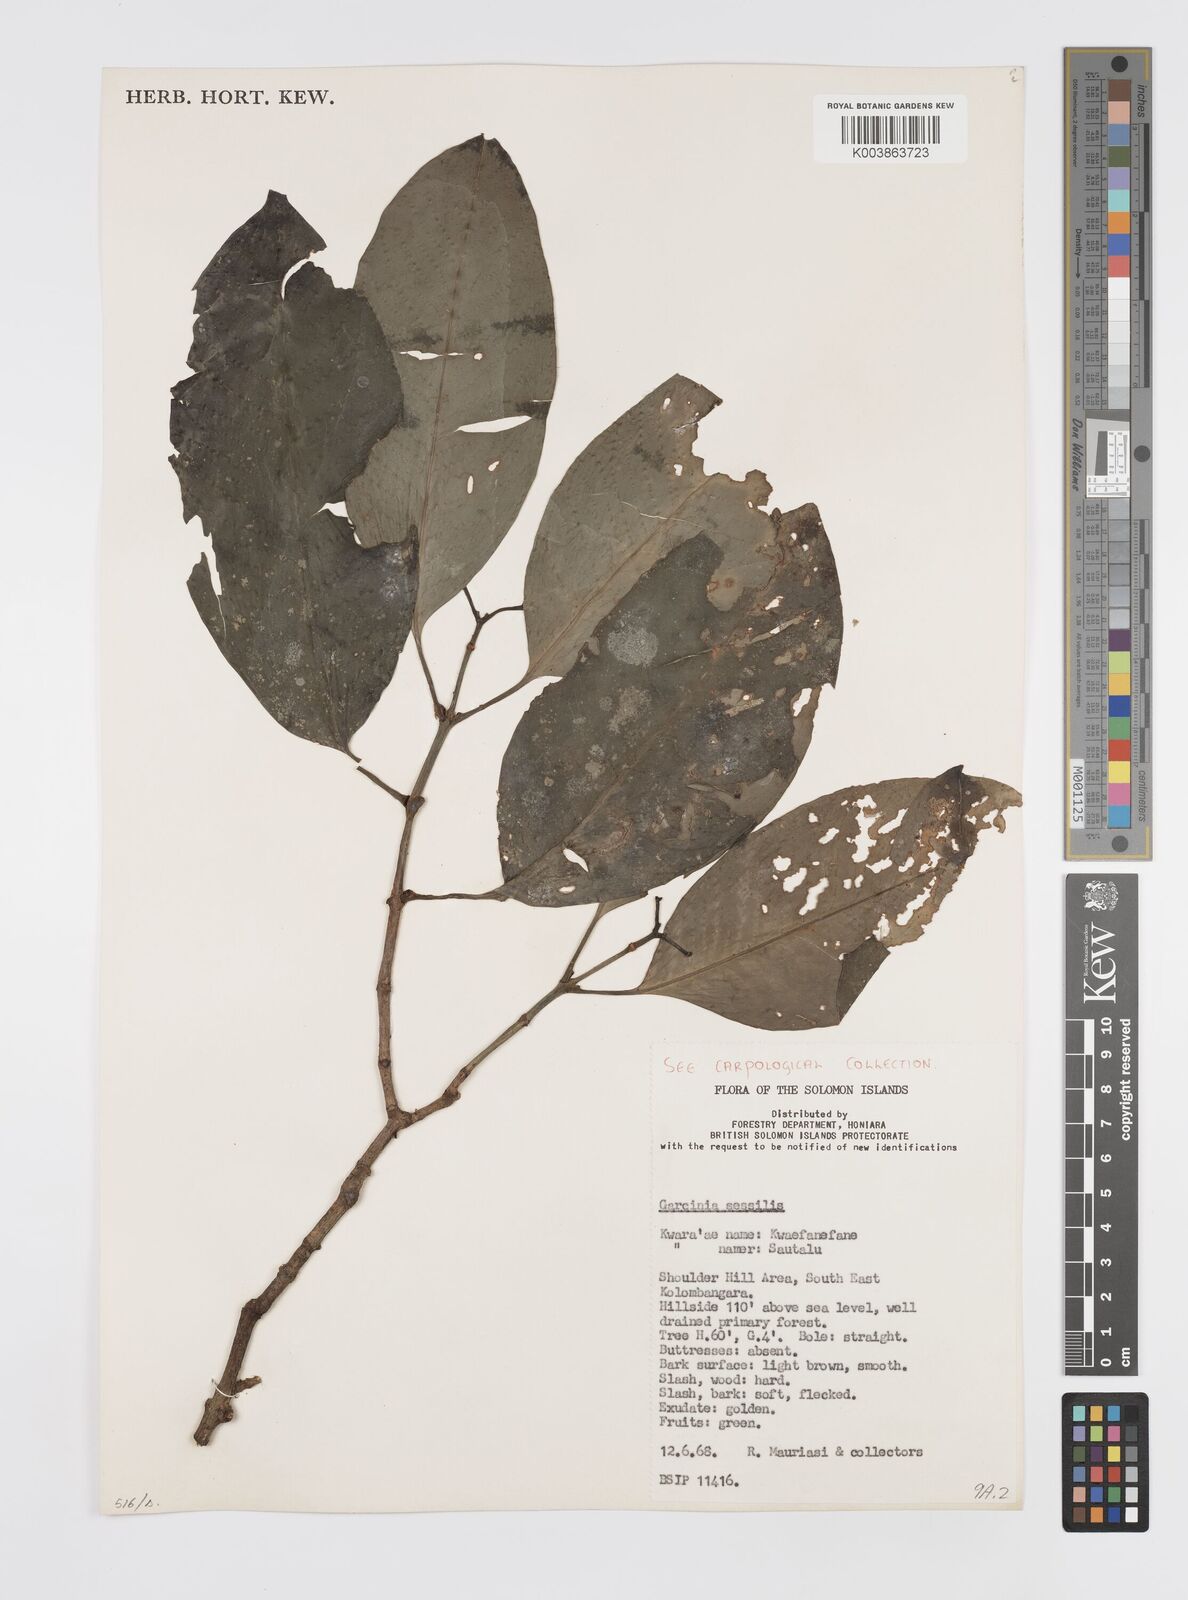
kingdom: Plantae
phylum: Tracheophyta
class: Magnoliopsida
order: Malpighiales
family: Clusiaceae
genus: Garcinia
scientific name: Garcinia sessilis
